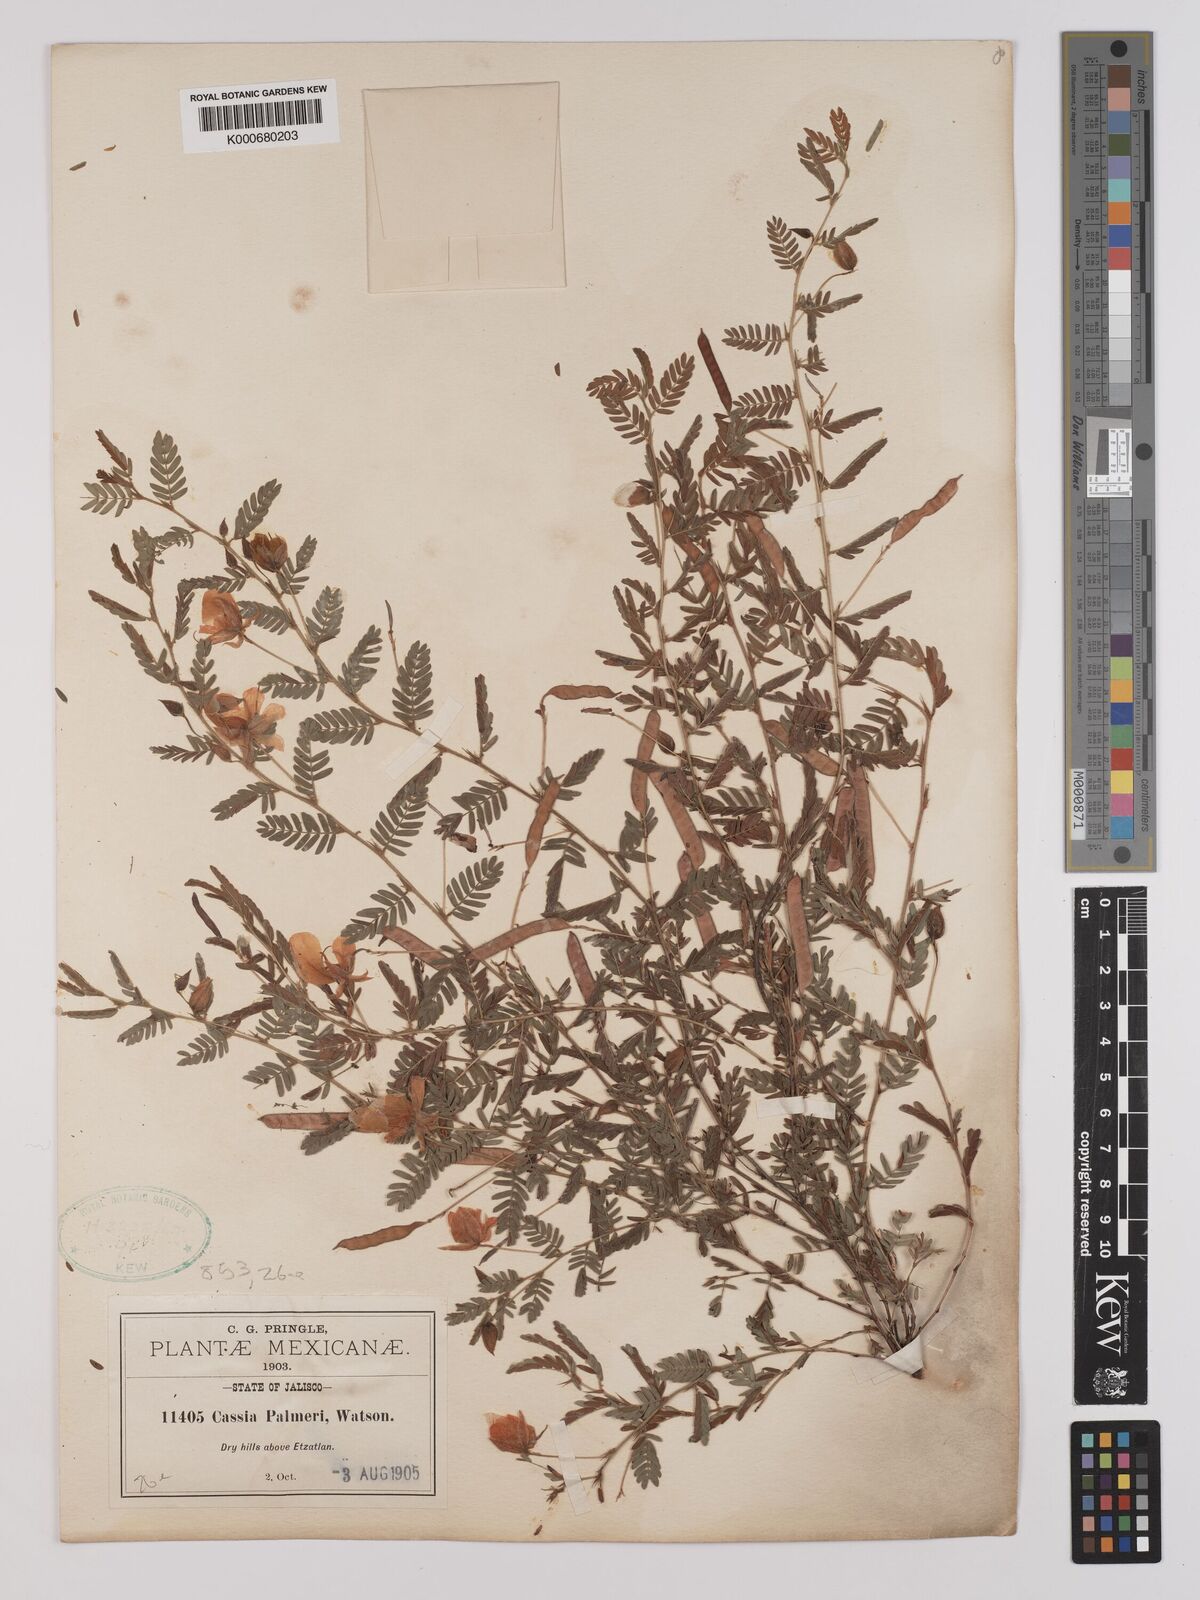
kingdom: Plantae
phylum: Tracheophyta
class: Magnoliopsida
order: Fabales
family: Fabaceae
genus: Chamaecrista
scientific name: Chamaecrista serpens
